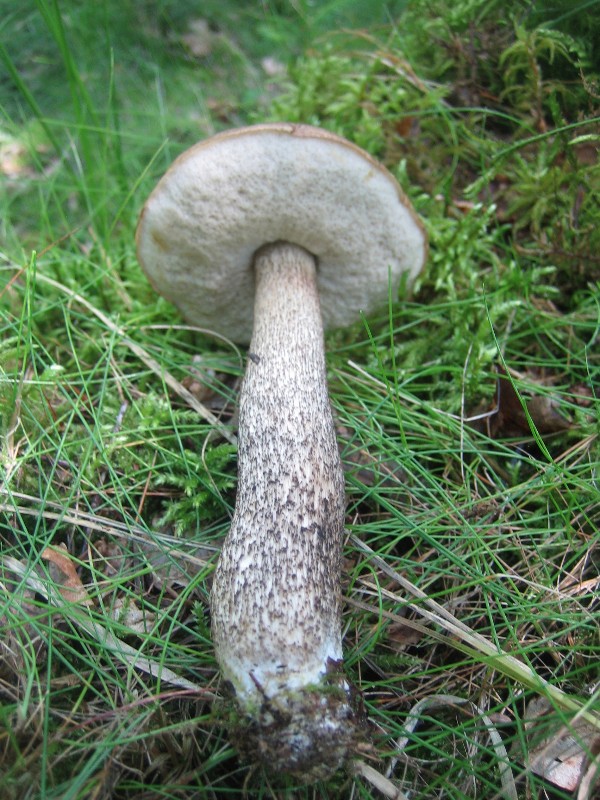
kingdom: Fungi
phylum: Basidiomycota
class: Agaricomycetes
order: Boletales
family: Boletaceae
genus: Leccinum
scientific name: Leccinum scabrum
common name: brun skælrørhat
